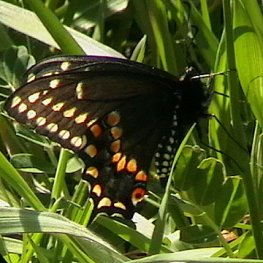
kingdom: Animalia
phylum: Arthropoda
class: Insecta
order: Lepidoptera
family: Papilionidae
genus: Papilio
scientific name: Papilio polyxenes
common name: Black Swallowtail
